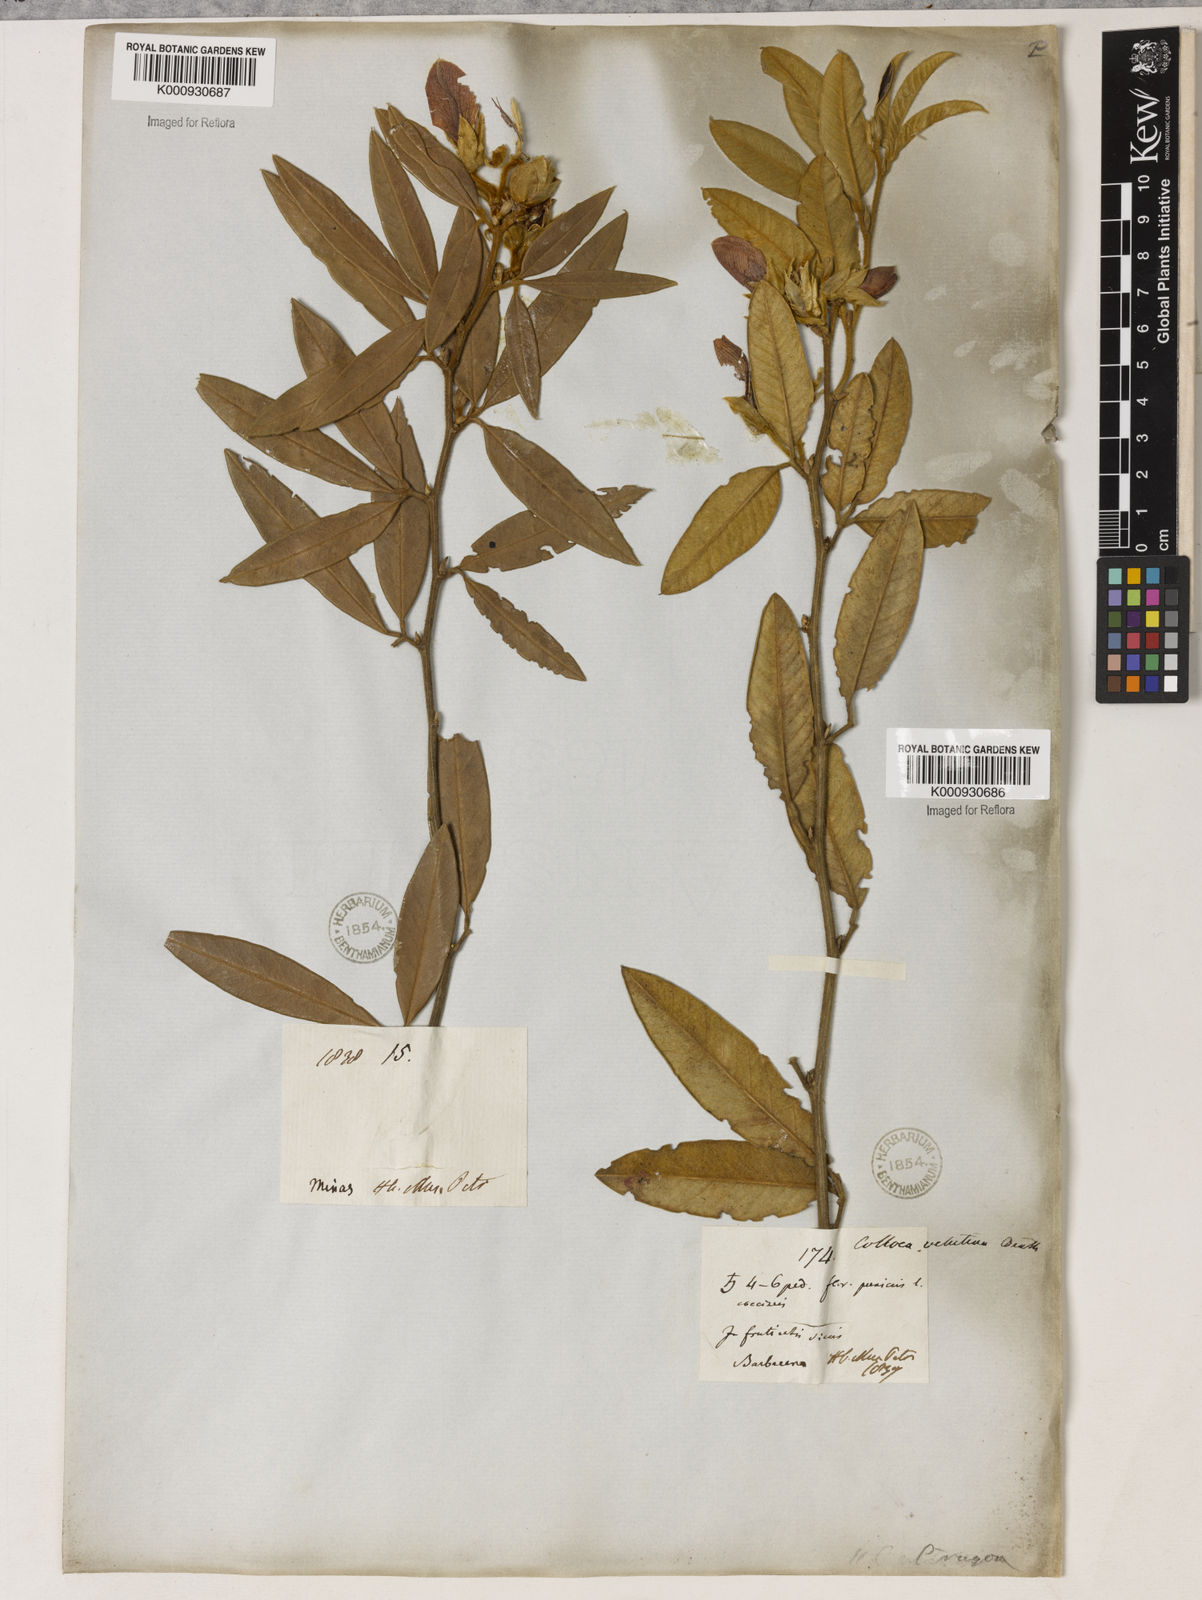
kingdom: Plantae
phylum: Tracheophyta
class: Magnoliopsida
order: Lamiales
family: Lamiaceae
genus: Coleus
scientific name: Coleus barbatus
